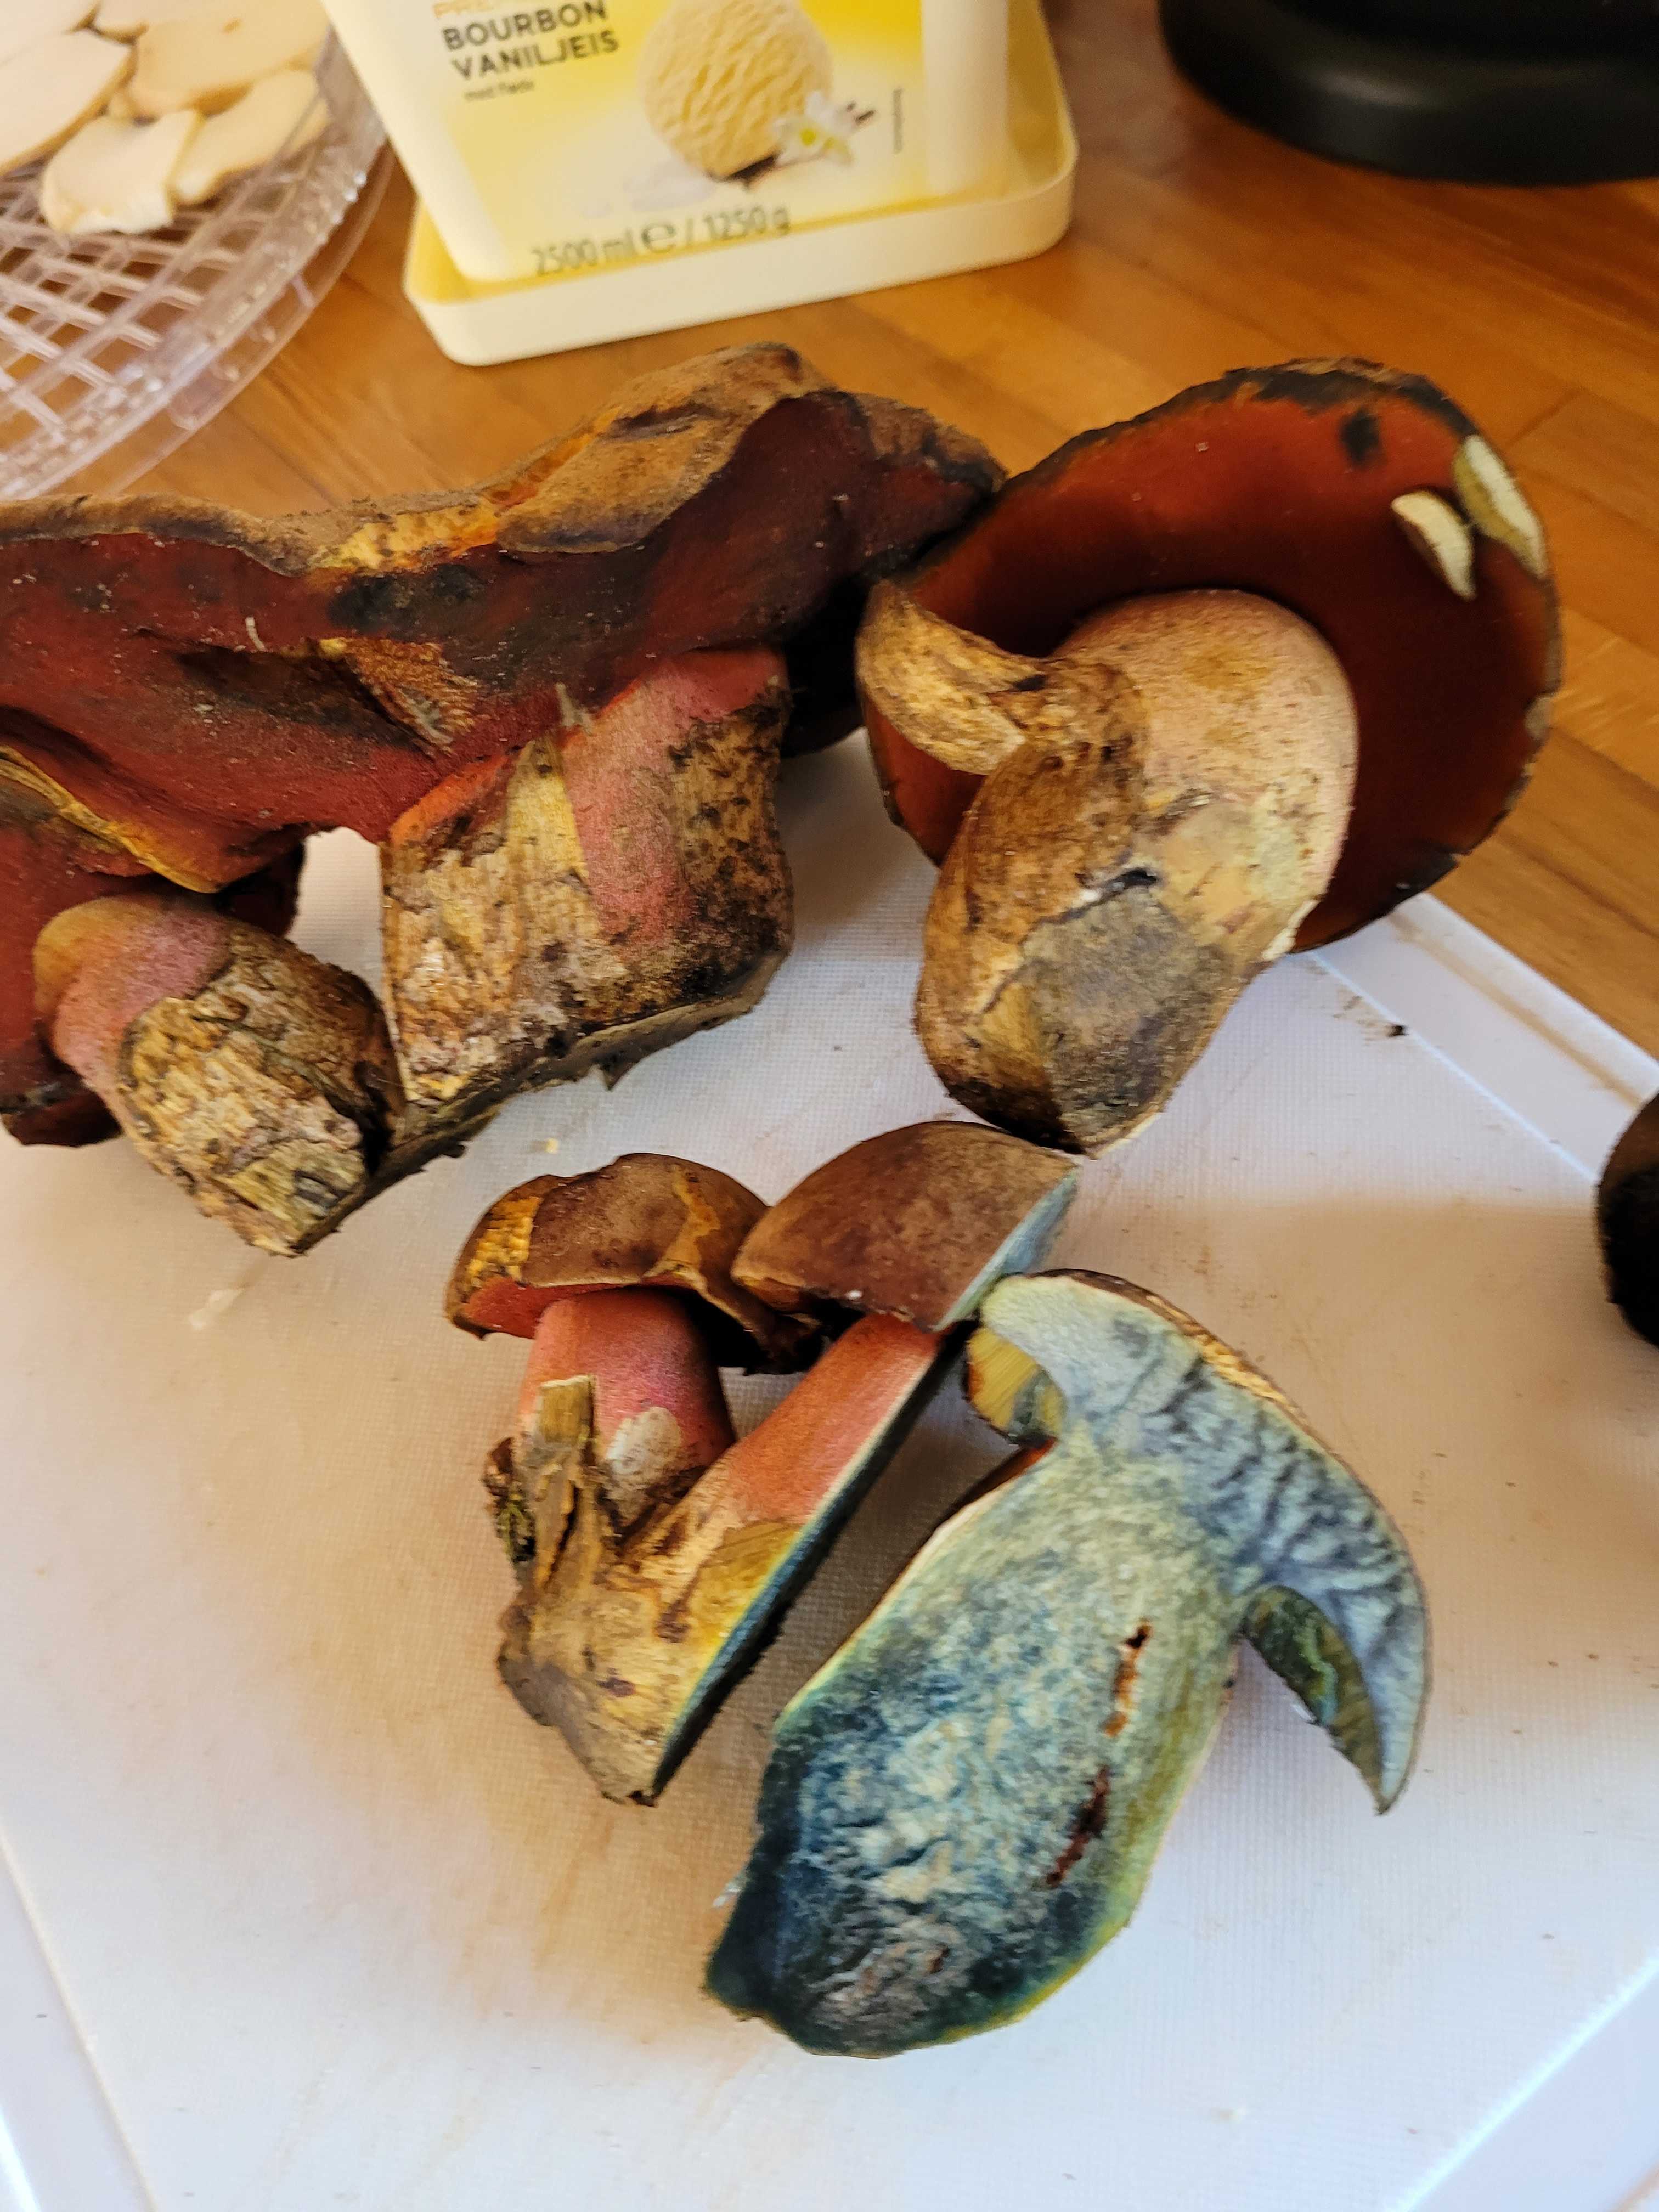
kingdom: Fungi
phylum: Basidiomycota
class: Agaricomycetes
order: Boletales
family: Boletaceae
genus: Neoboletus
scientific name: Neoboletus erythropus
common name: punktstokket indigorørhat
